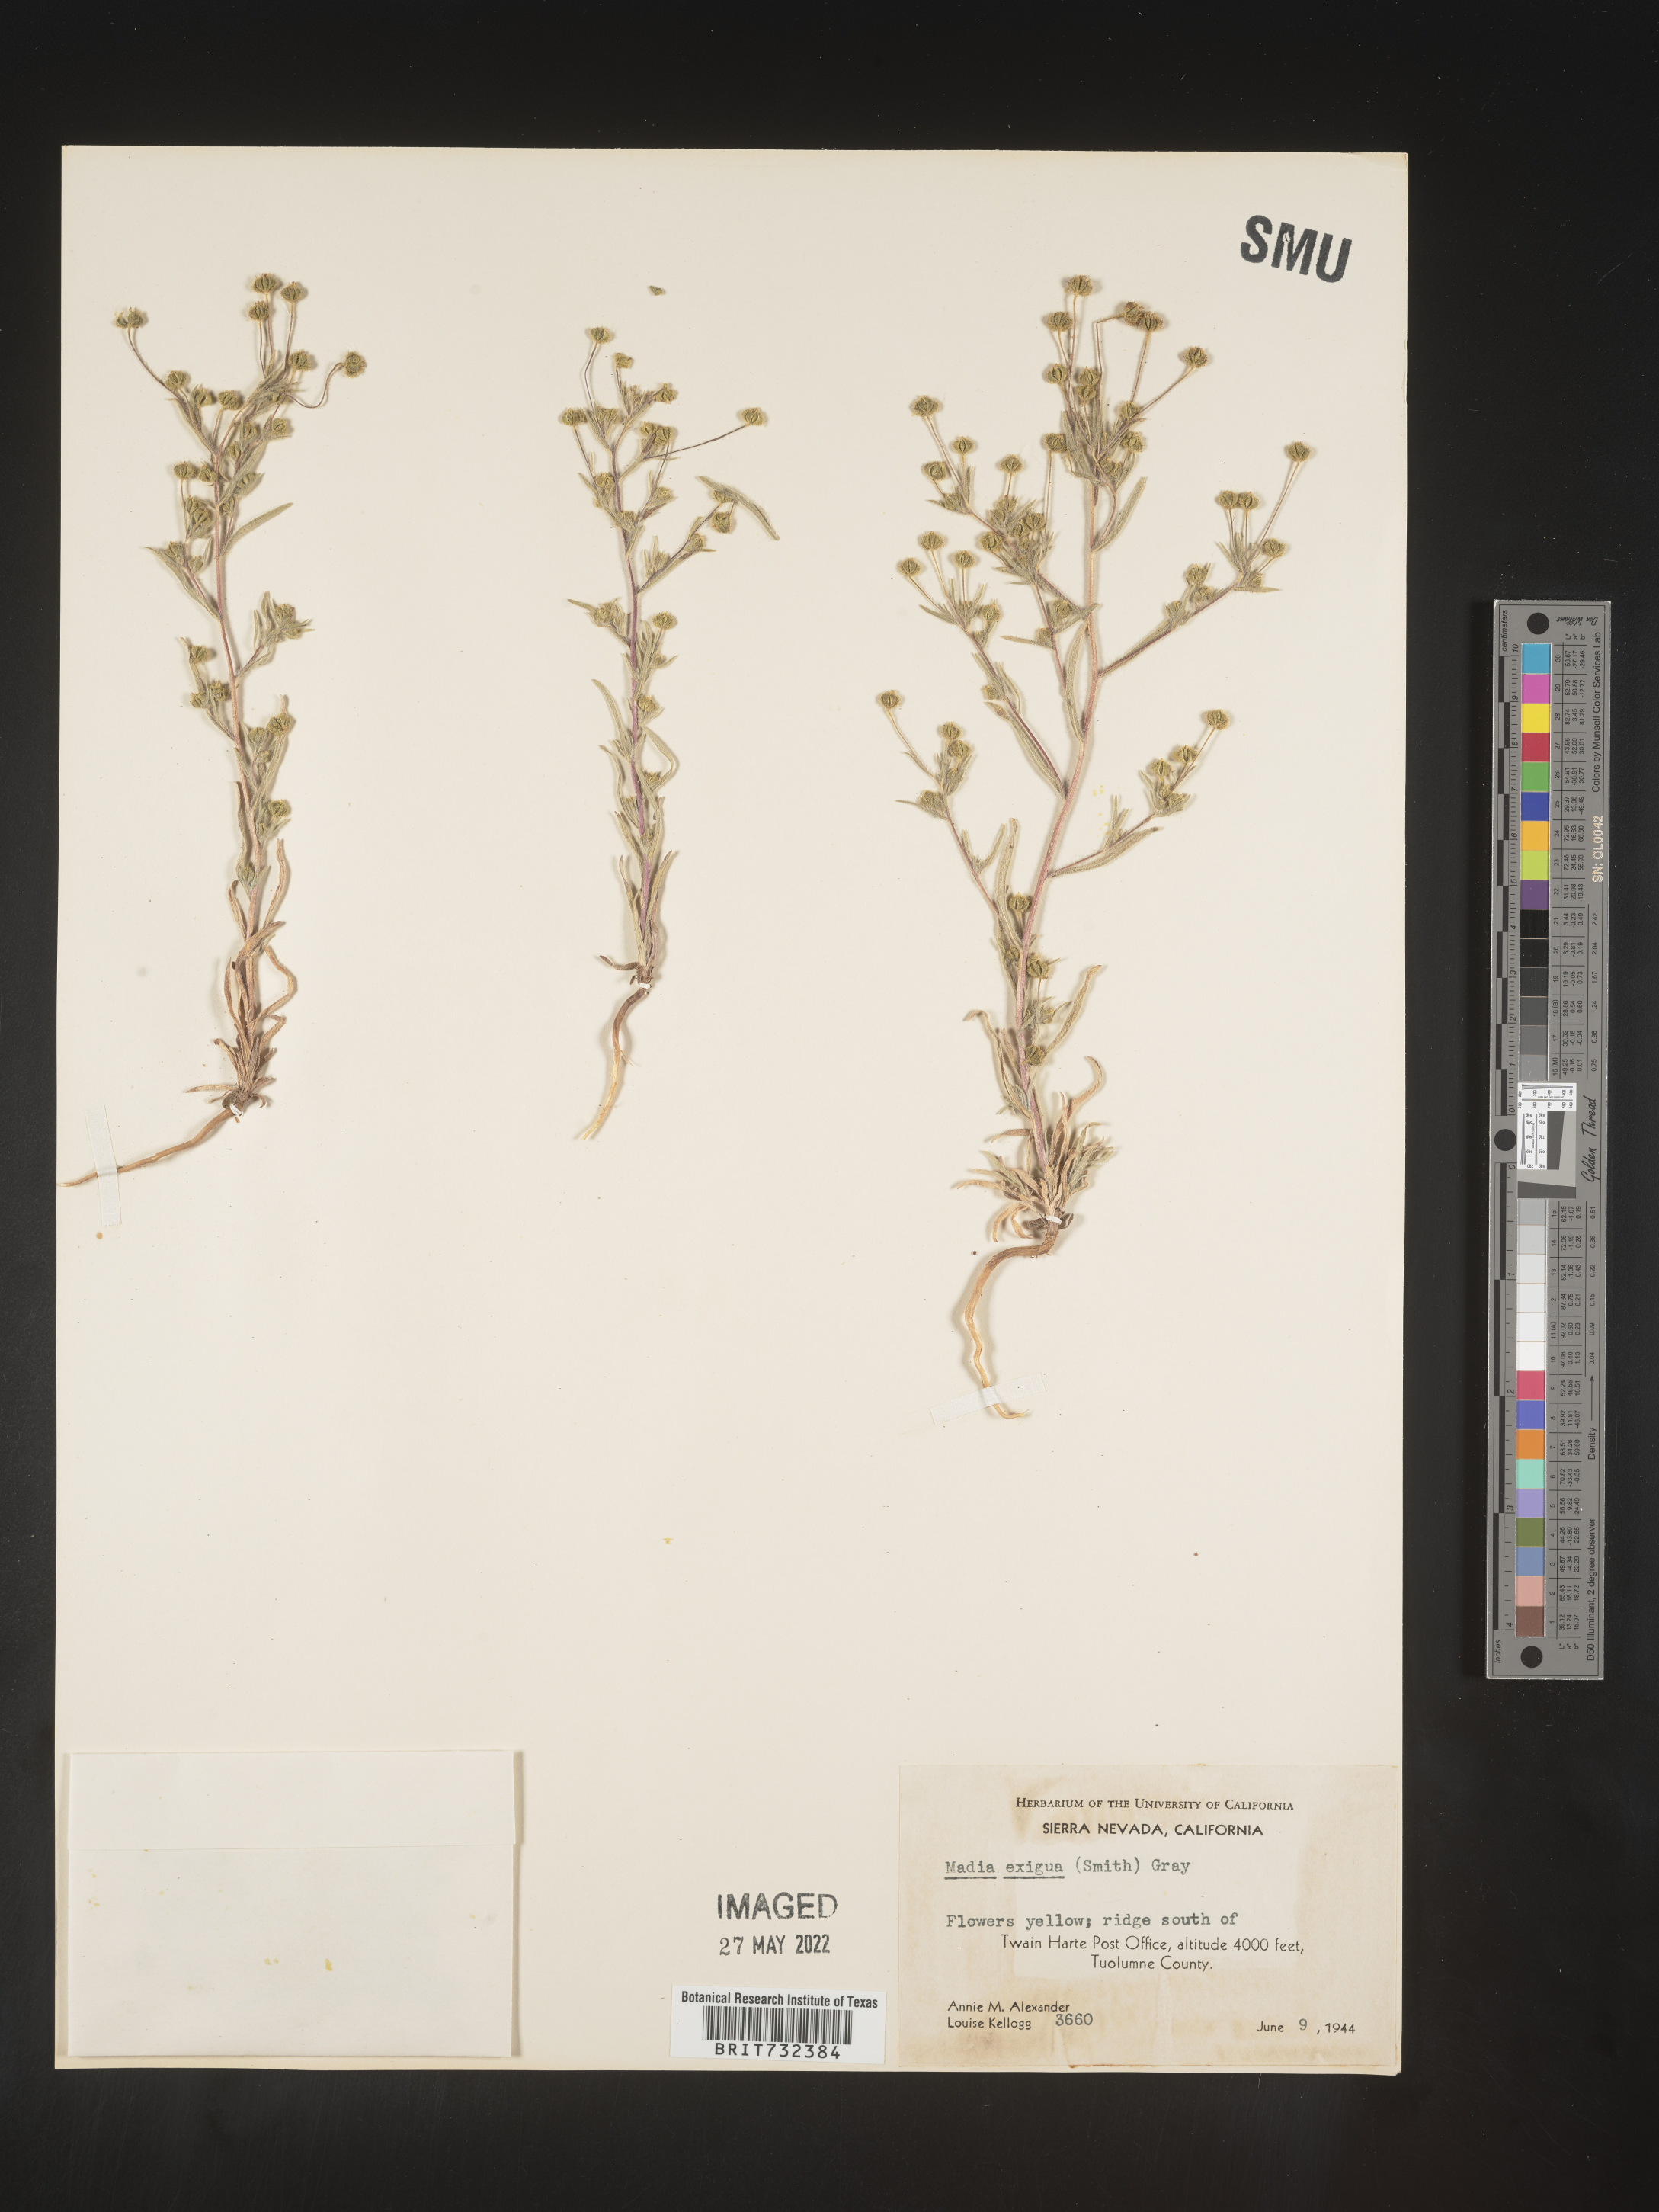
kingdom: Plantae
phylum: Tracheophyta
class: Magnoliopsida
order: Asterales
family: Asteraceae
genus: Madia
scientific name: Madia
